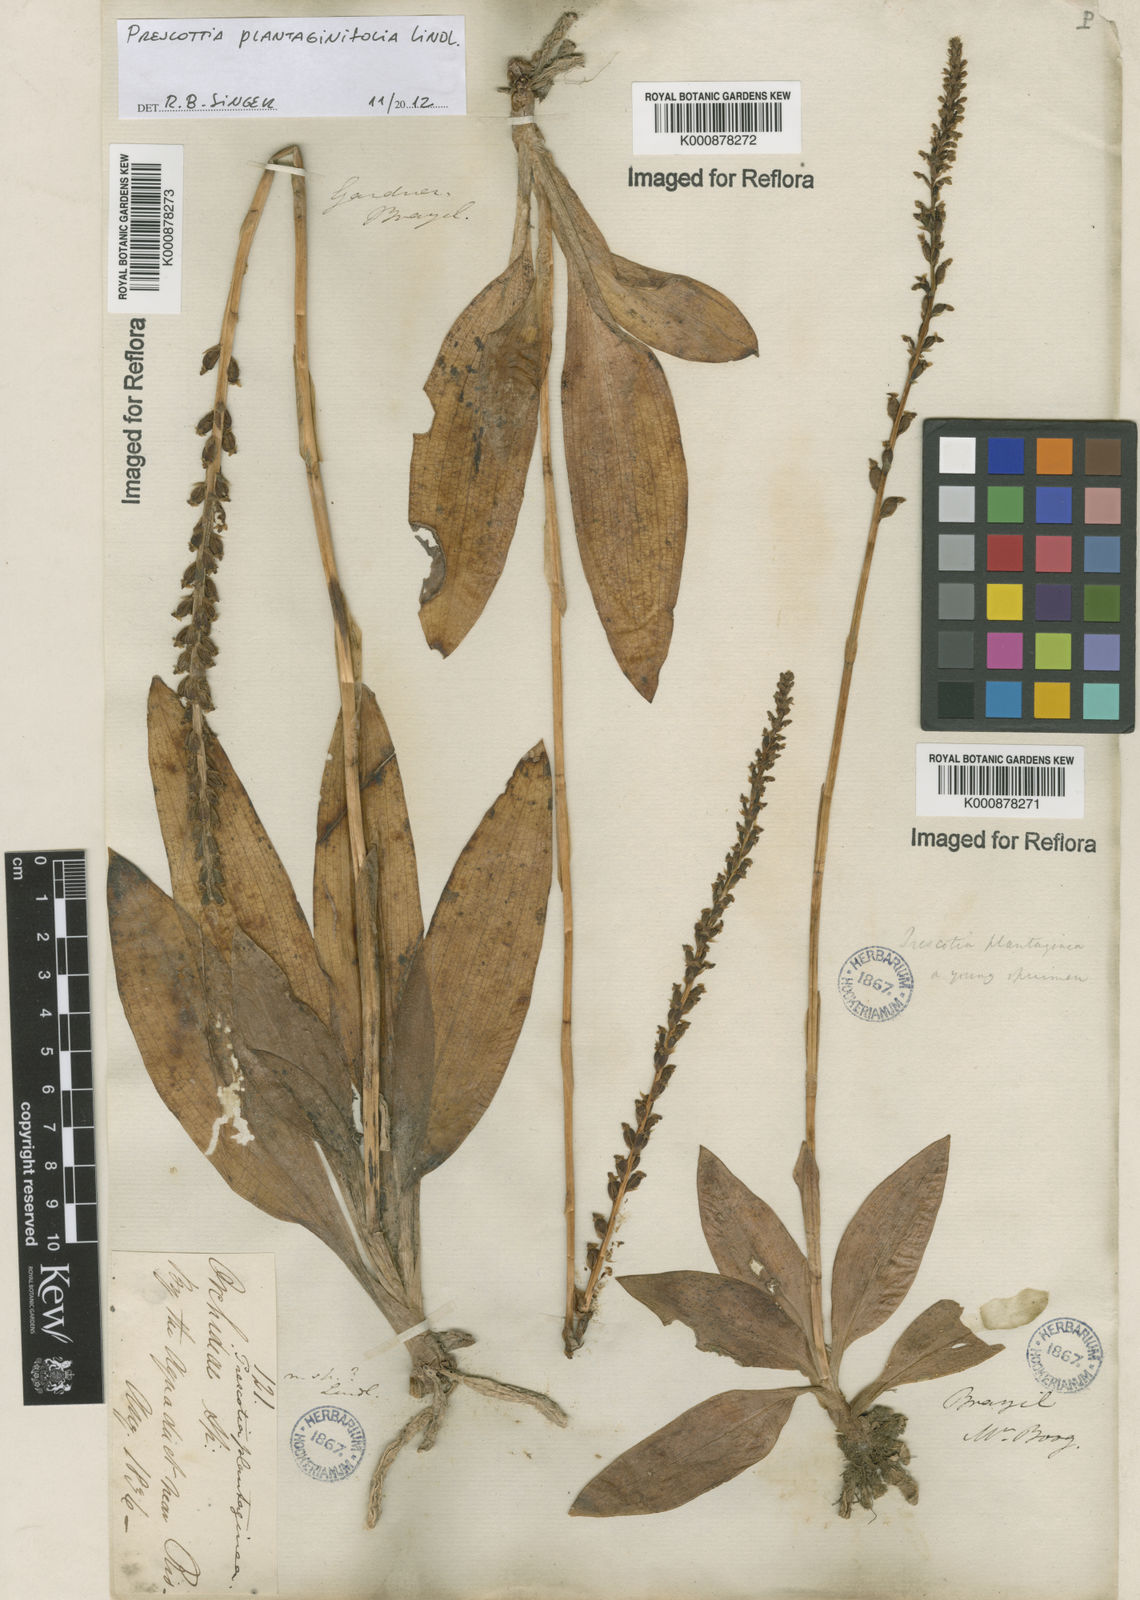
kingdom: Plantae
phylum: Tracheophyta
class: Liliopsida
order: Asparagales
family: Orchidaceae
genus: Prescottia
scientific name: Prescottia plantaginifolia
